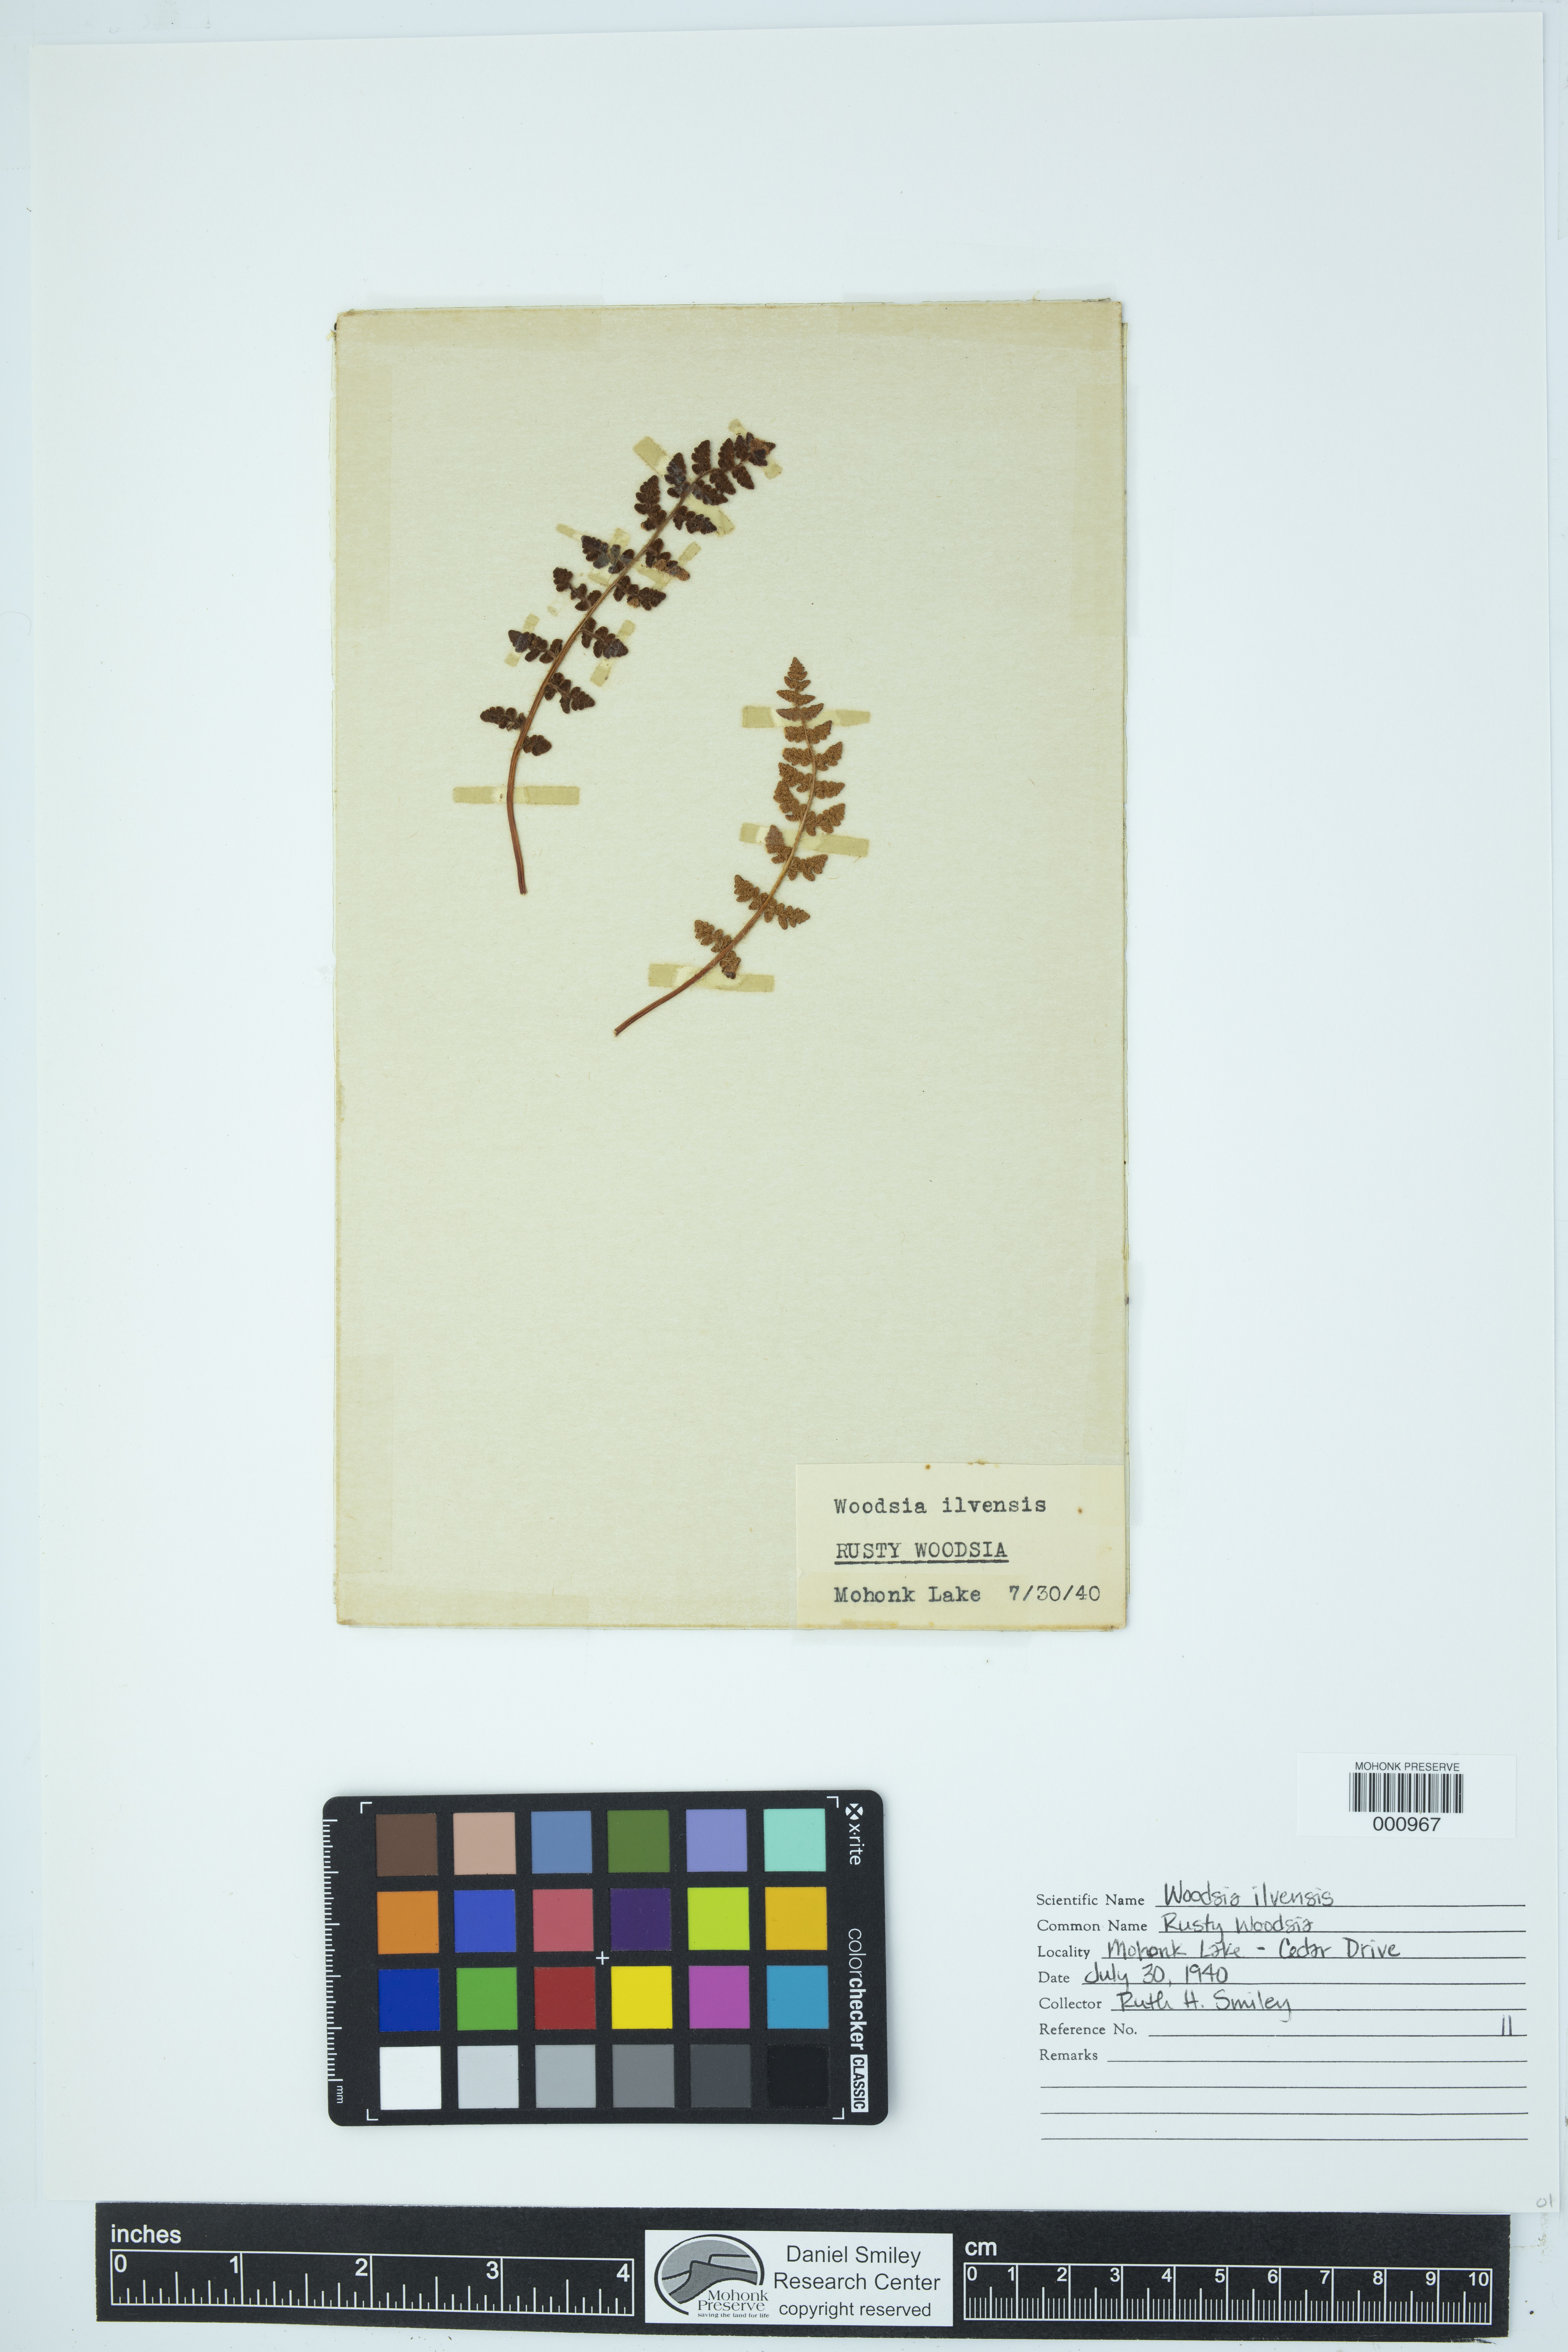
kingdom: Plantae
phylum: Tracheophyta
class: Polypodiopsida
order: Polypodiales
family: Woodsiaceae
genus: Woodsia
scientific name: Woodsia ilvensis
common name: Fragrant woodsia
